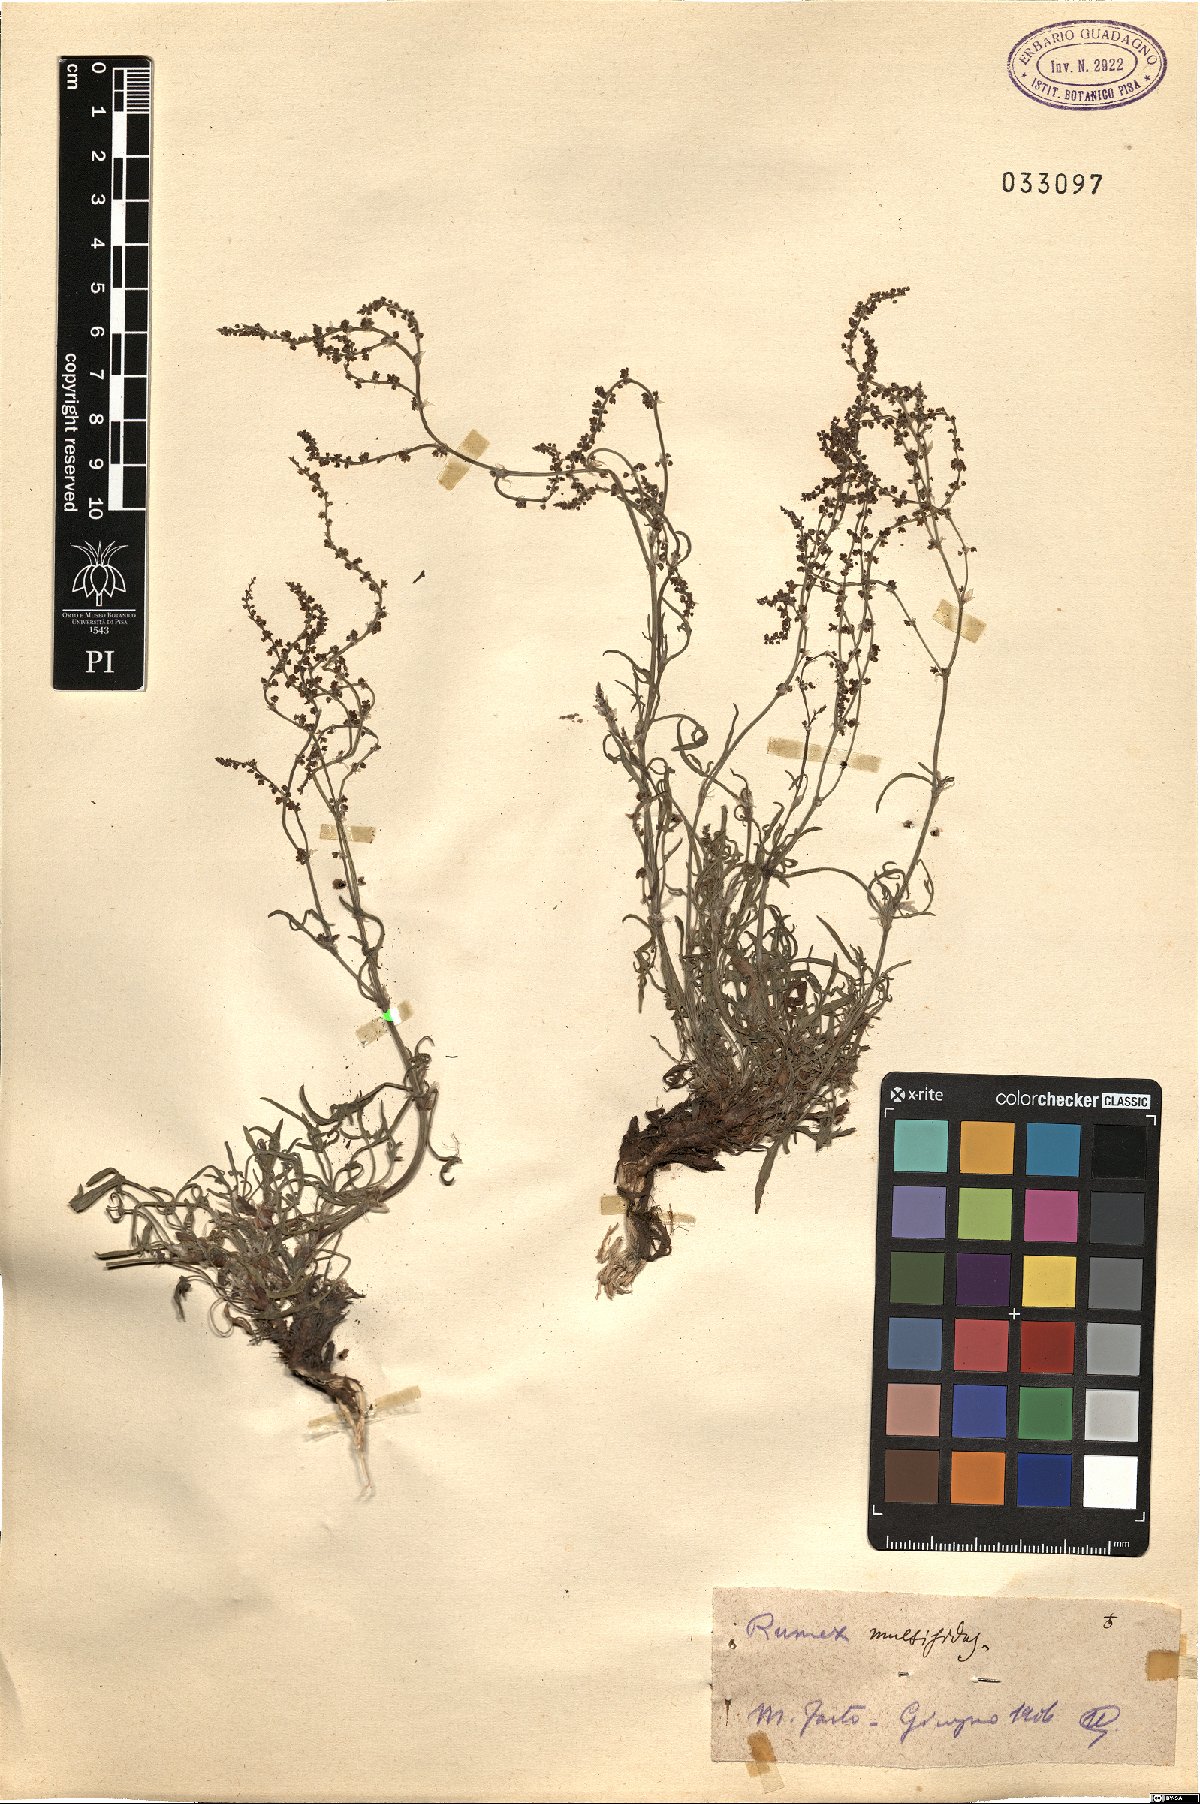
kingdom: Plantae
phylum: Tracheophyta
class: Magnoliopsida
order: Caryophyllales
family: Polygonaceae
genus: Rumex
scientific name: Rumex acetosella
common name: Common sheep sorrel
